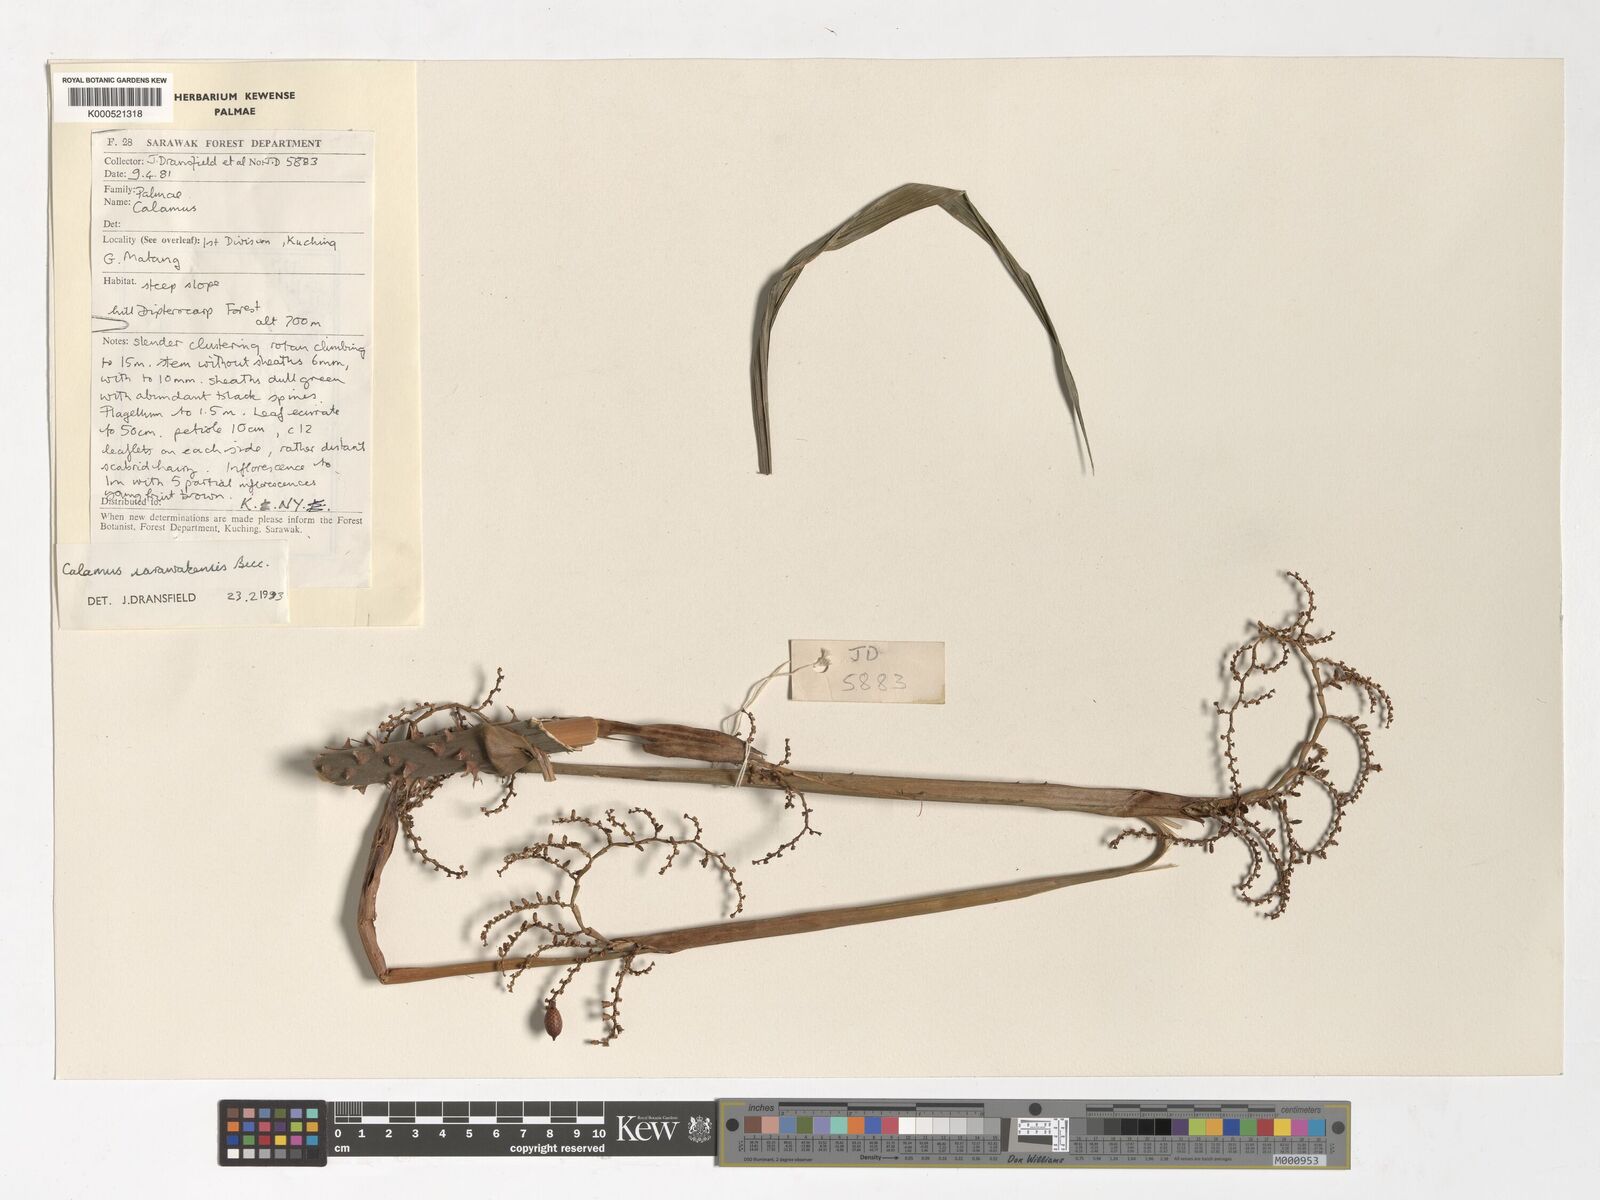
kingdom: Plantae
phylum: Tracheophyta
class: Liliopsida
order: Arecales
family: Arecaceae
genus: Calamus
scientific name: Calamus sarawakensis
